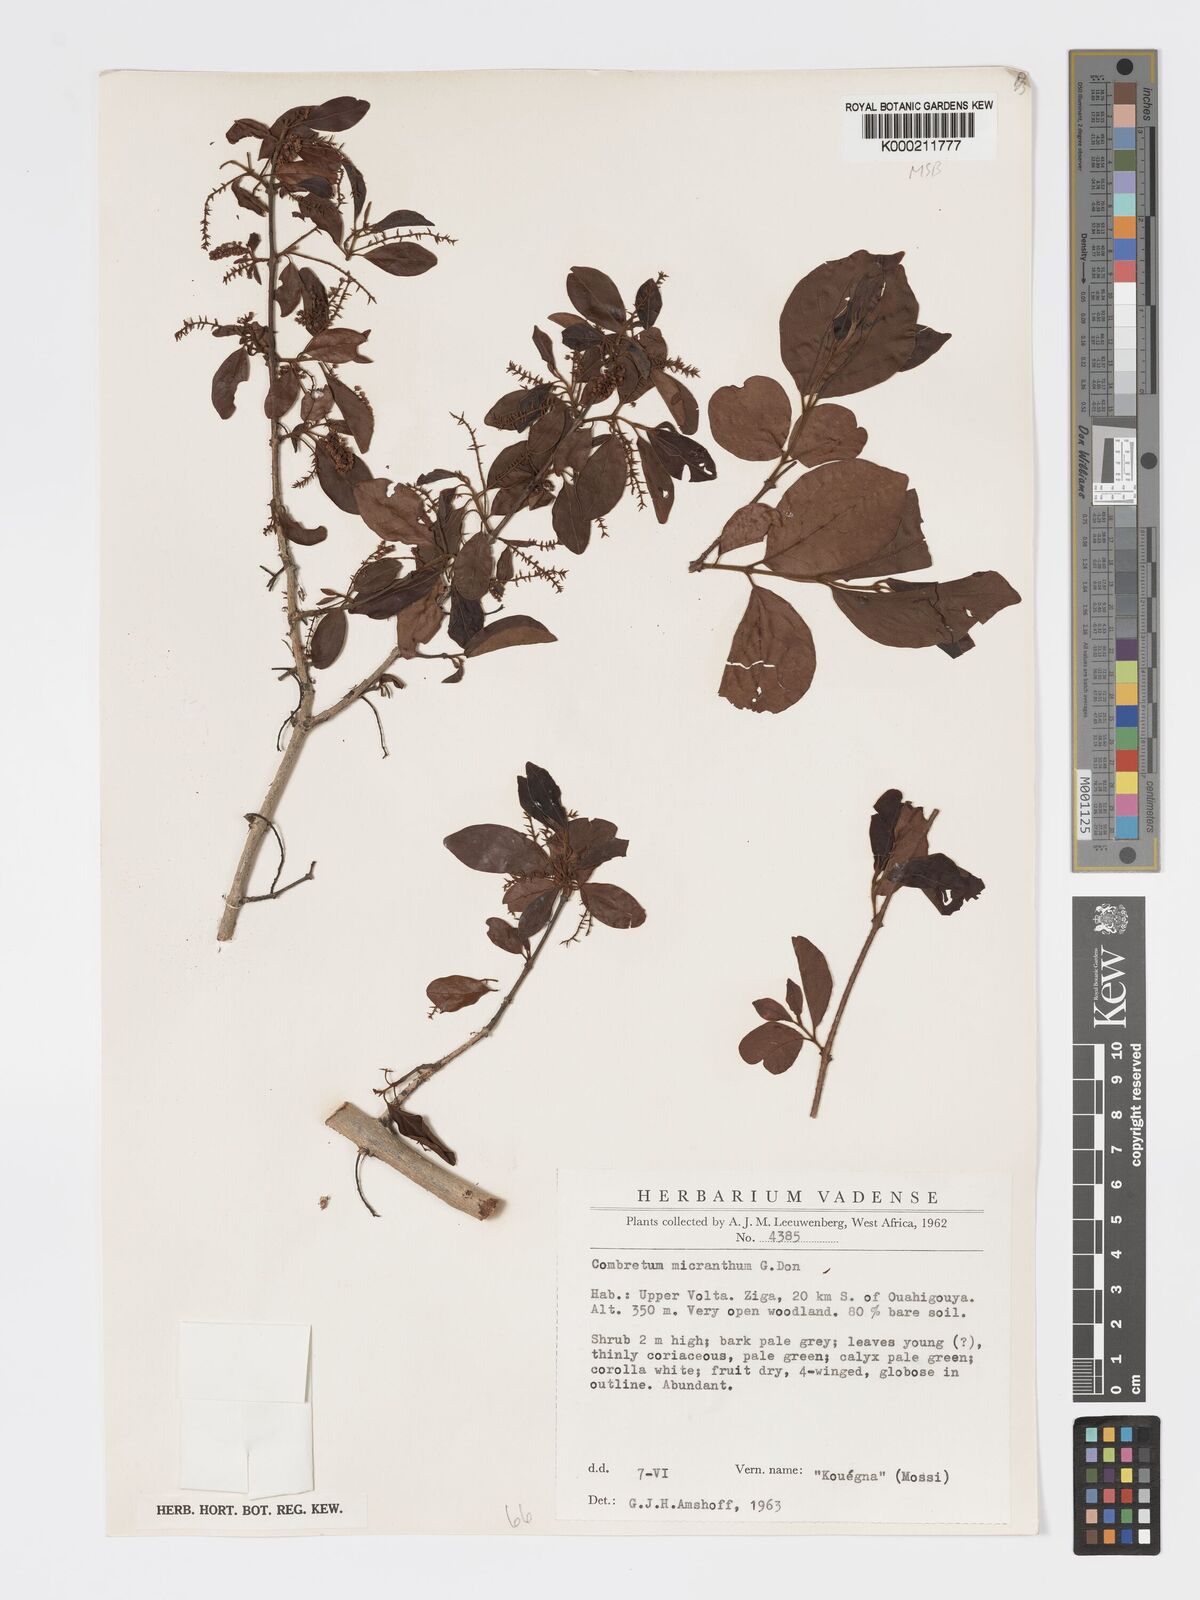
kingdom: Plantae
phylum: Tracheophyta
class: Magnoliopsida
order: Myrtales
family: Combretaceae
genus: Combretum
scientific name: Combretum micranthum
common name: Opium-antidote
